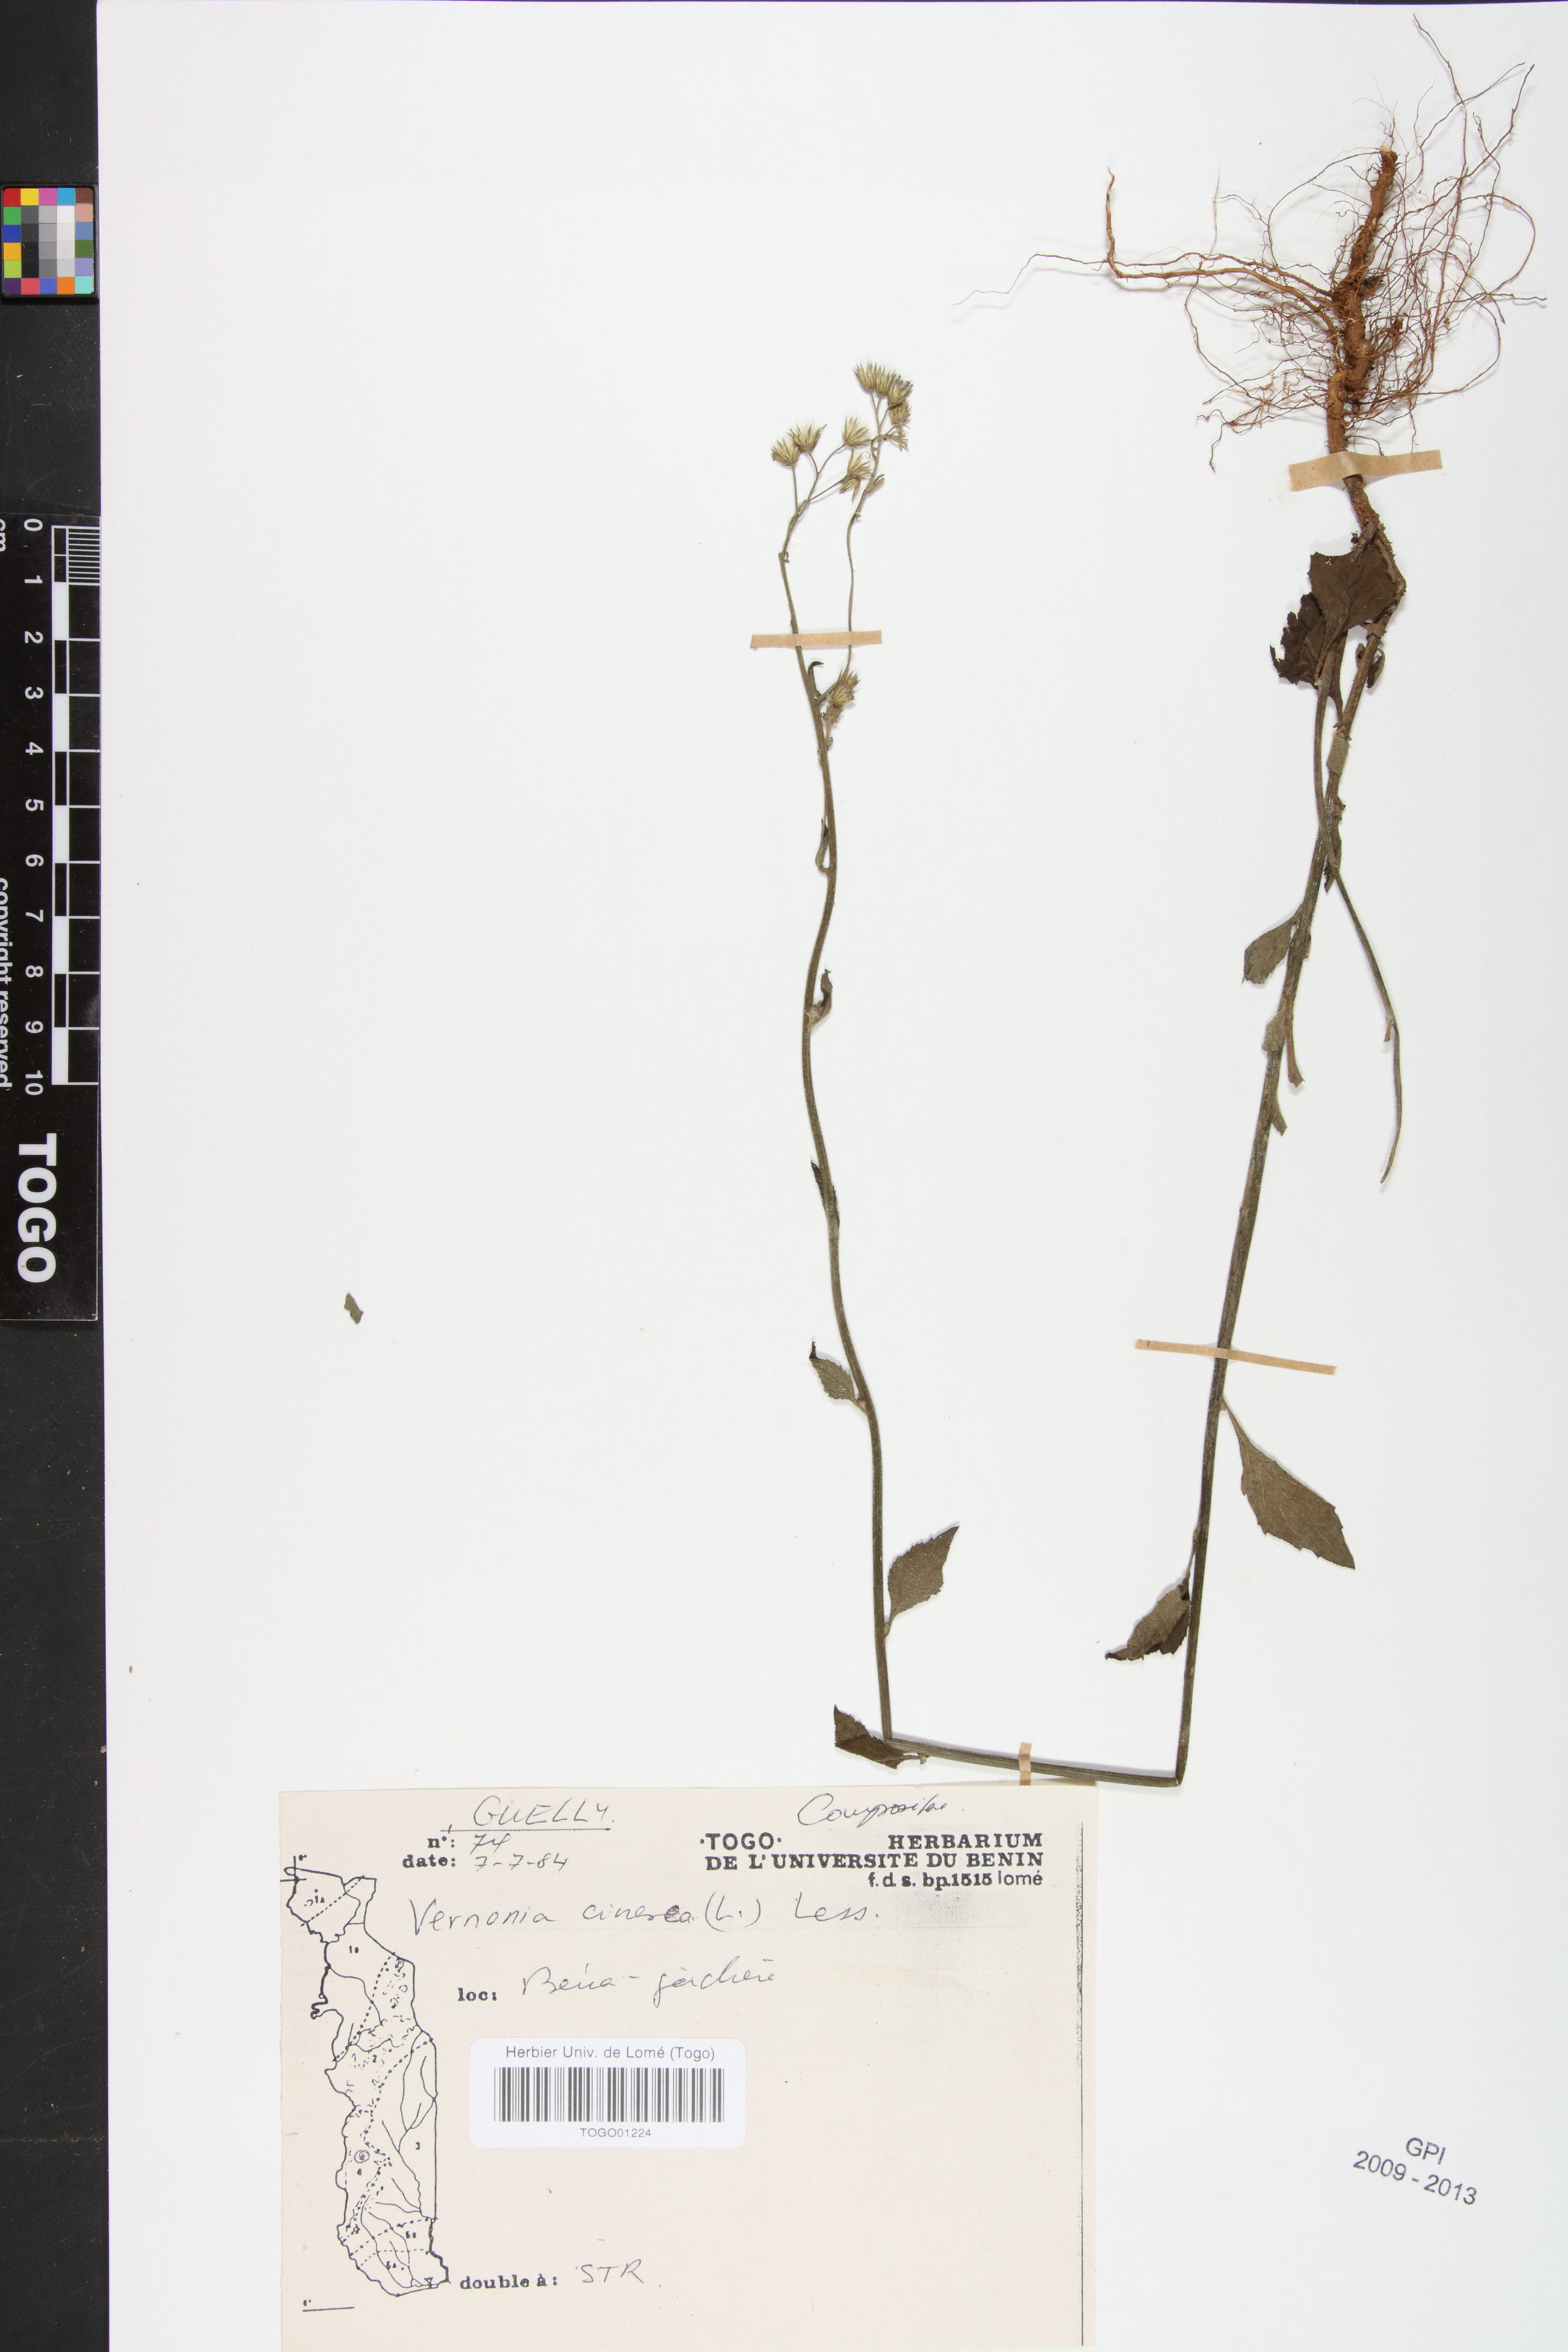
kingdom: Plantae
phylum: Tracheophyta
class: Magnoliopsida
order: Asterales
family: Asteraceae
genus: Cyanthillium
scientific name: Cyanthillium cinereum
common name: Little ironweed
